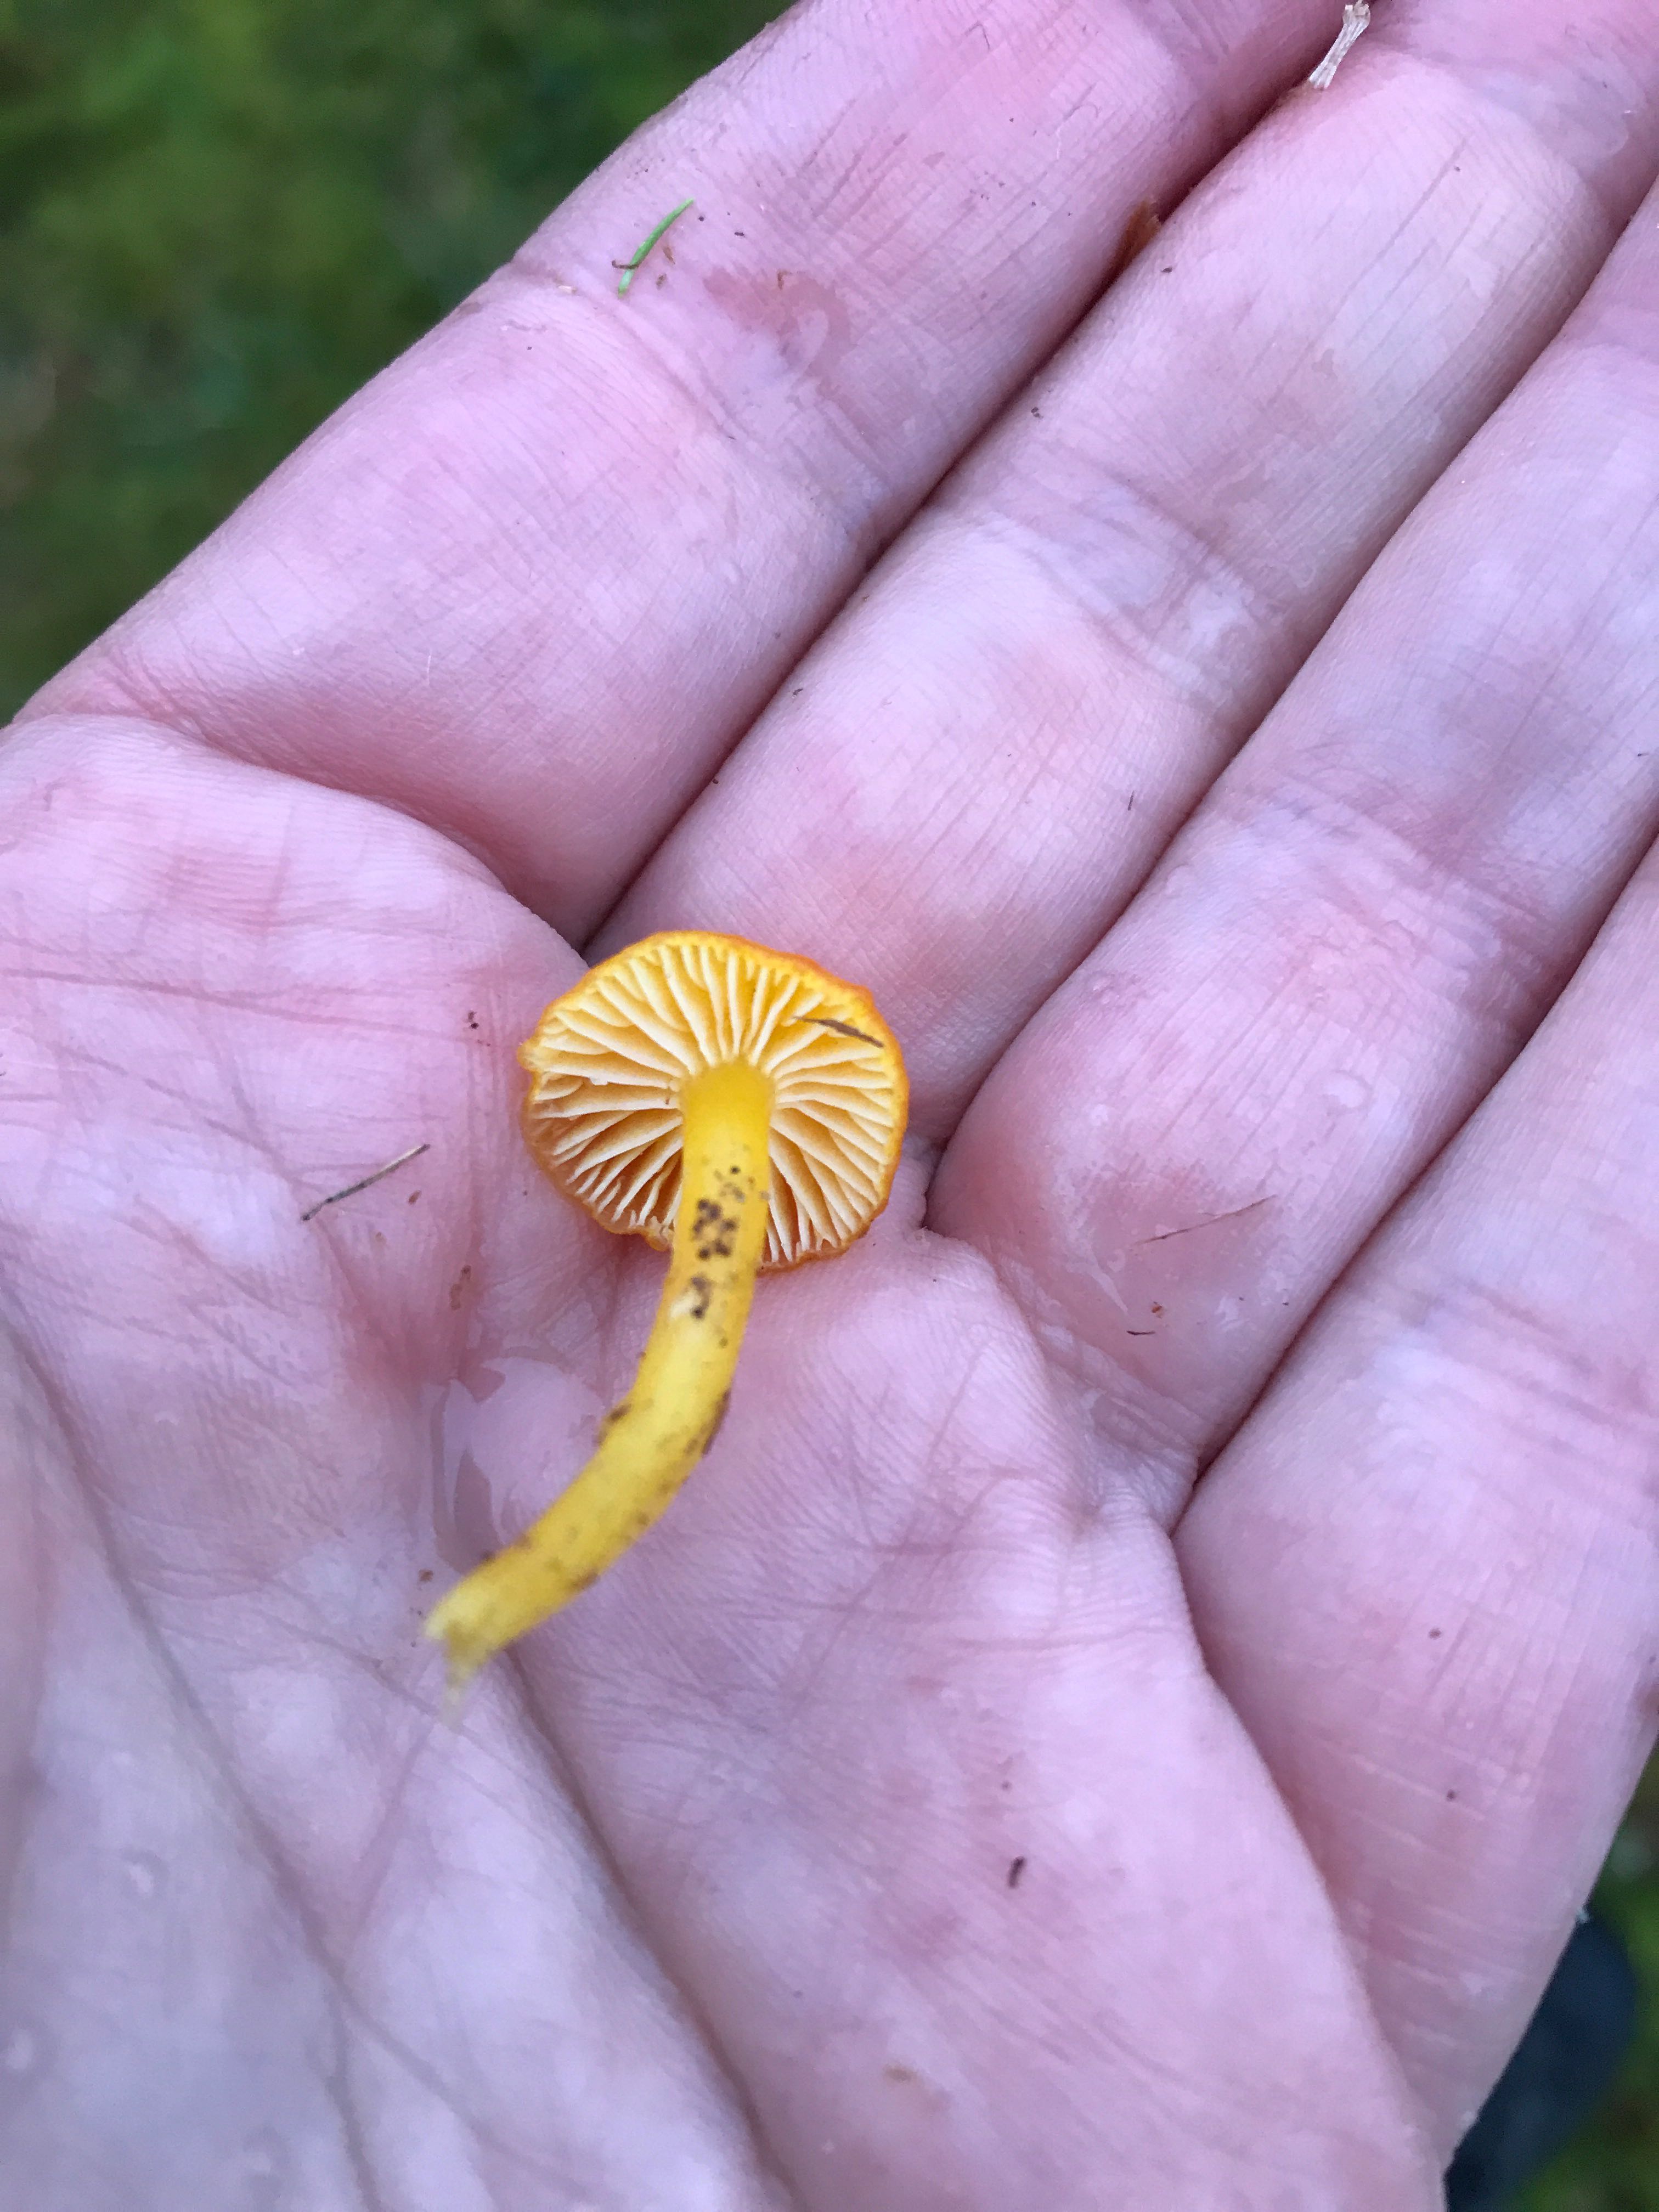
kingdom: Fungi
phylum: Basidiomycota
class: Agaricomycetes
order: Agaricales
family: Hygrophoraceae
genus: Hygrocybe
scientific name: Hygrocybe ceracea
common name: voksgul vokshat
